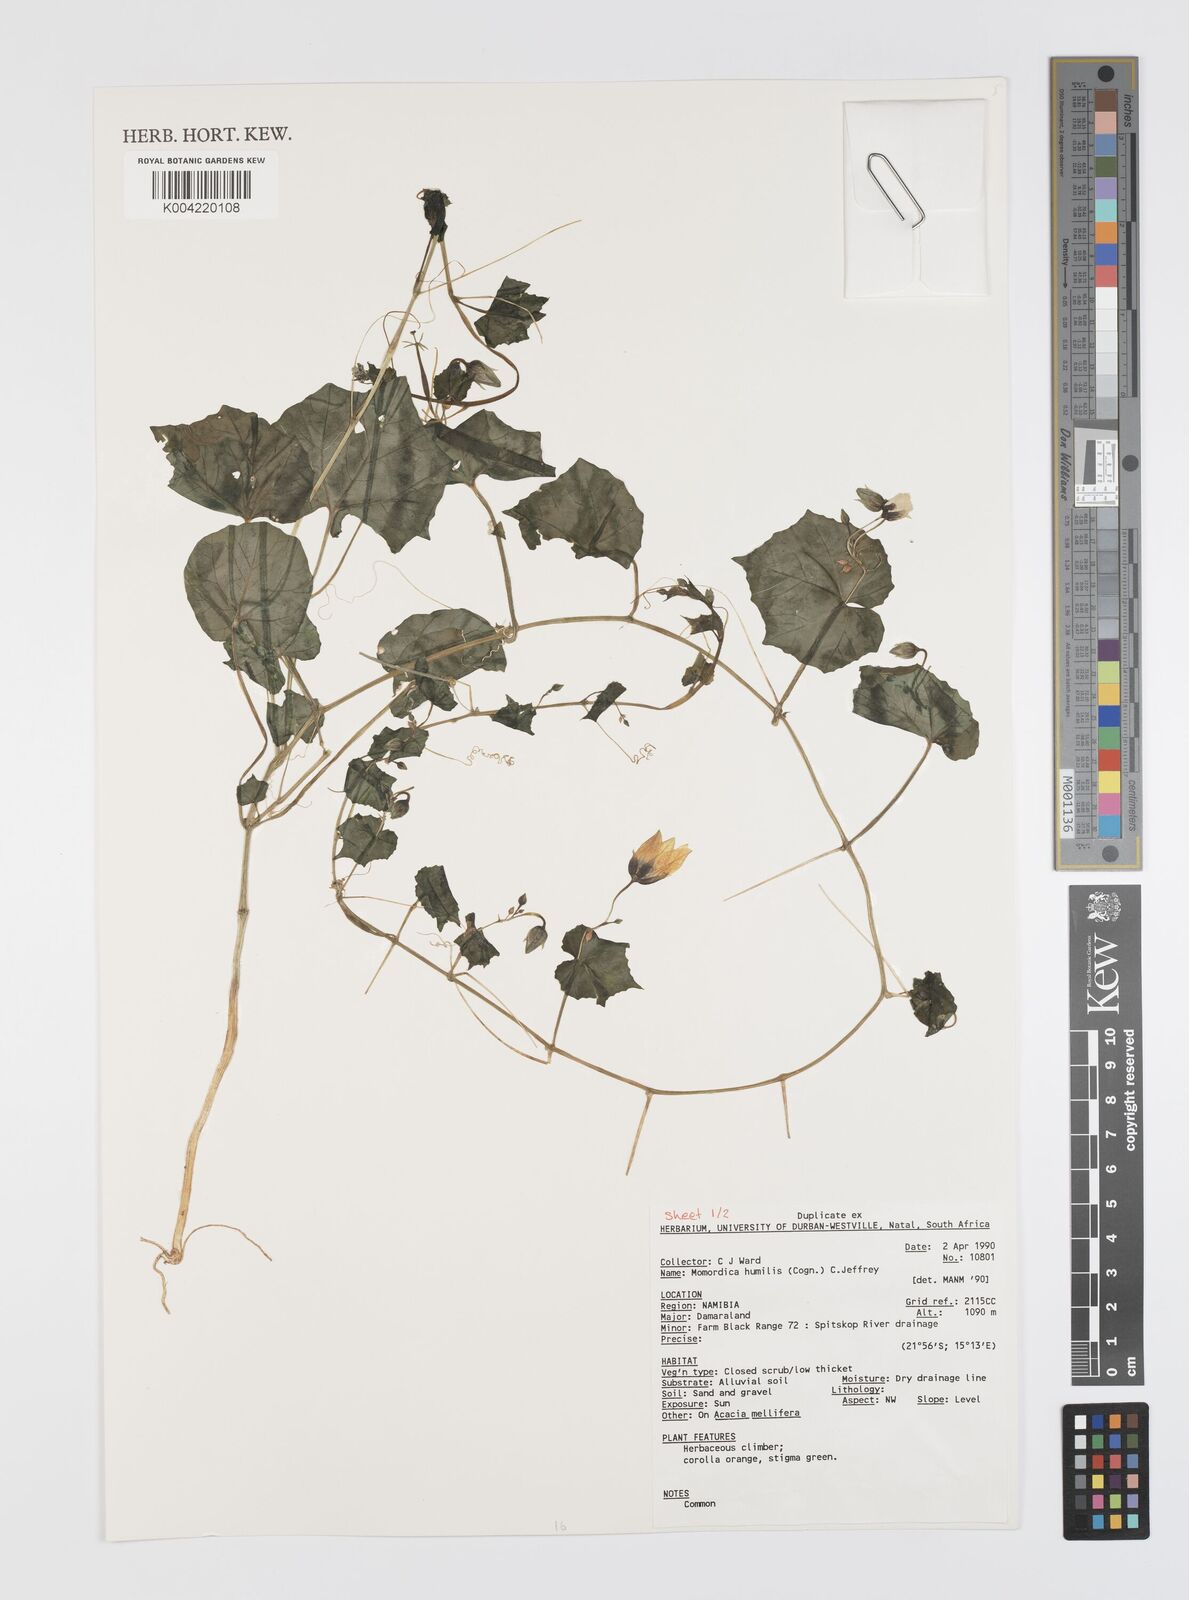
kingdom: Plantae
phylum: Tracheophyta
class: Magnoliopsida
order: Cucurbitales
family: Cucurbitaceae
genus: Momordica
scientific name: Momordica
